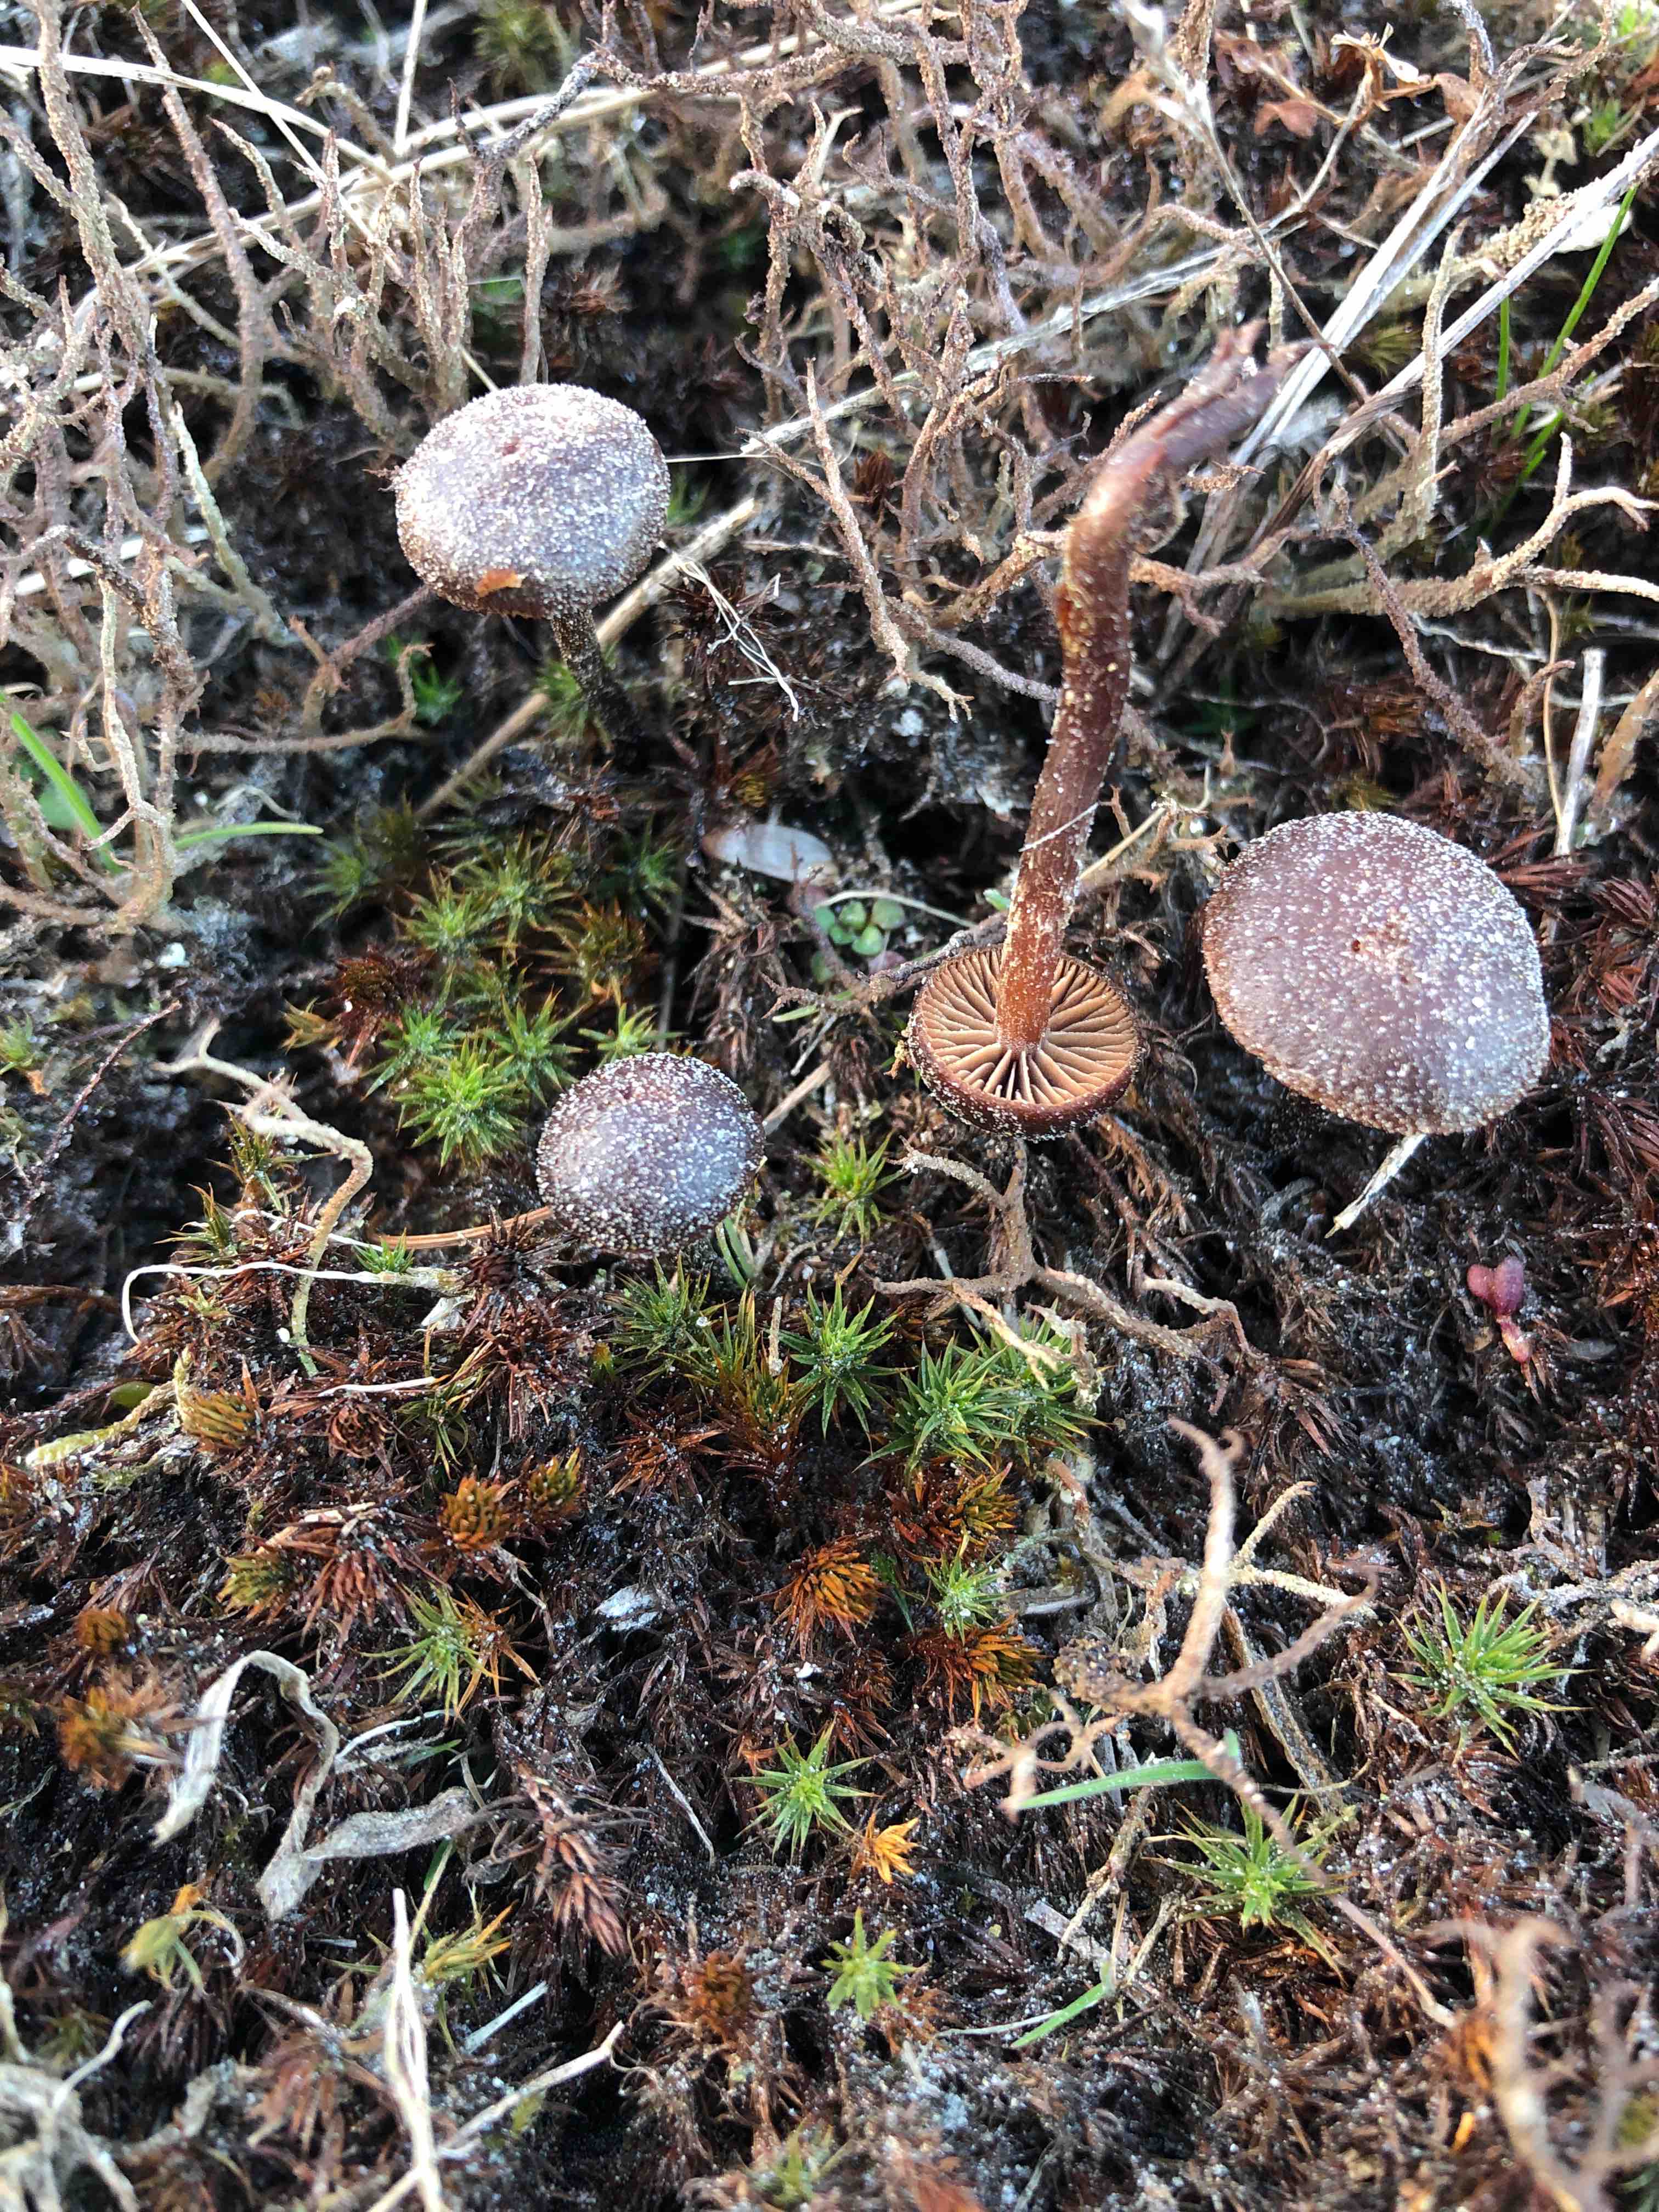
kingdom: Fungi
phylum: Basidiomycota
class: Agaricomycetes
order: Agaricales
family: Strophariaceae
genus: Deconica
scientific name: Deconica montana
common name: rødbrun stråhat
